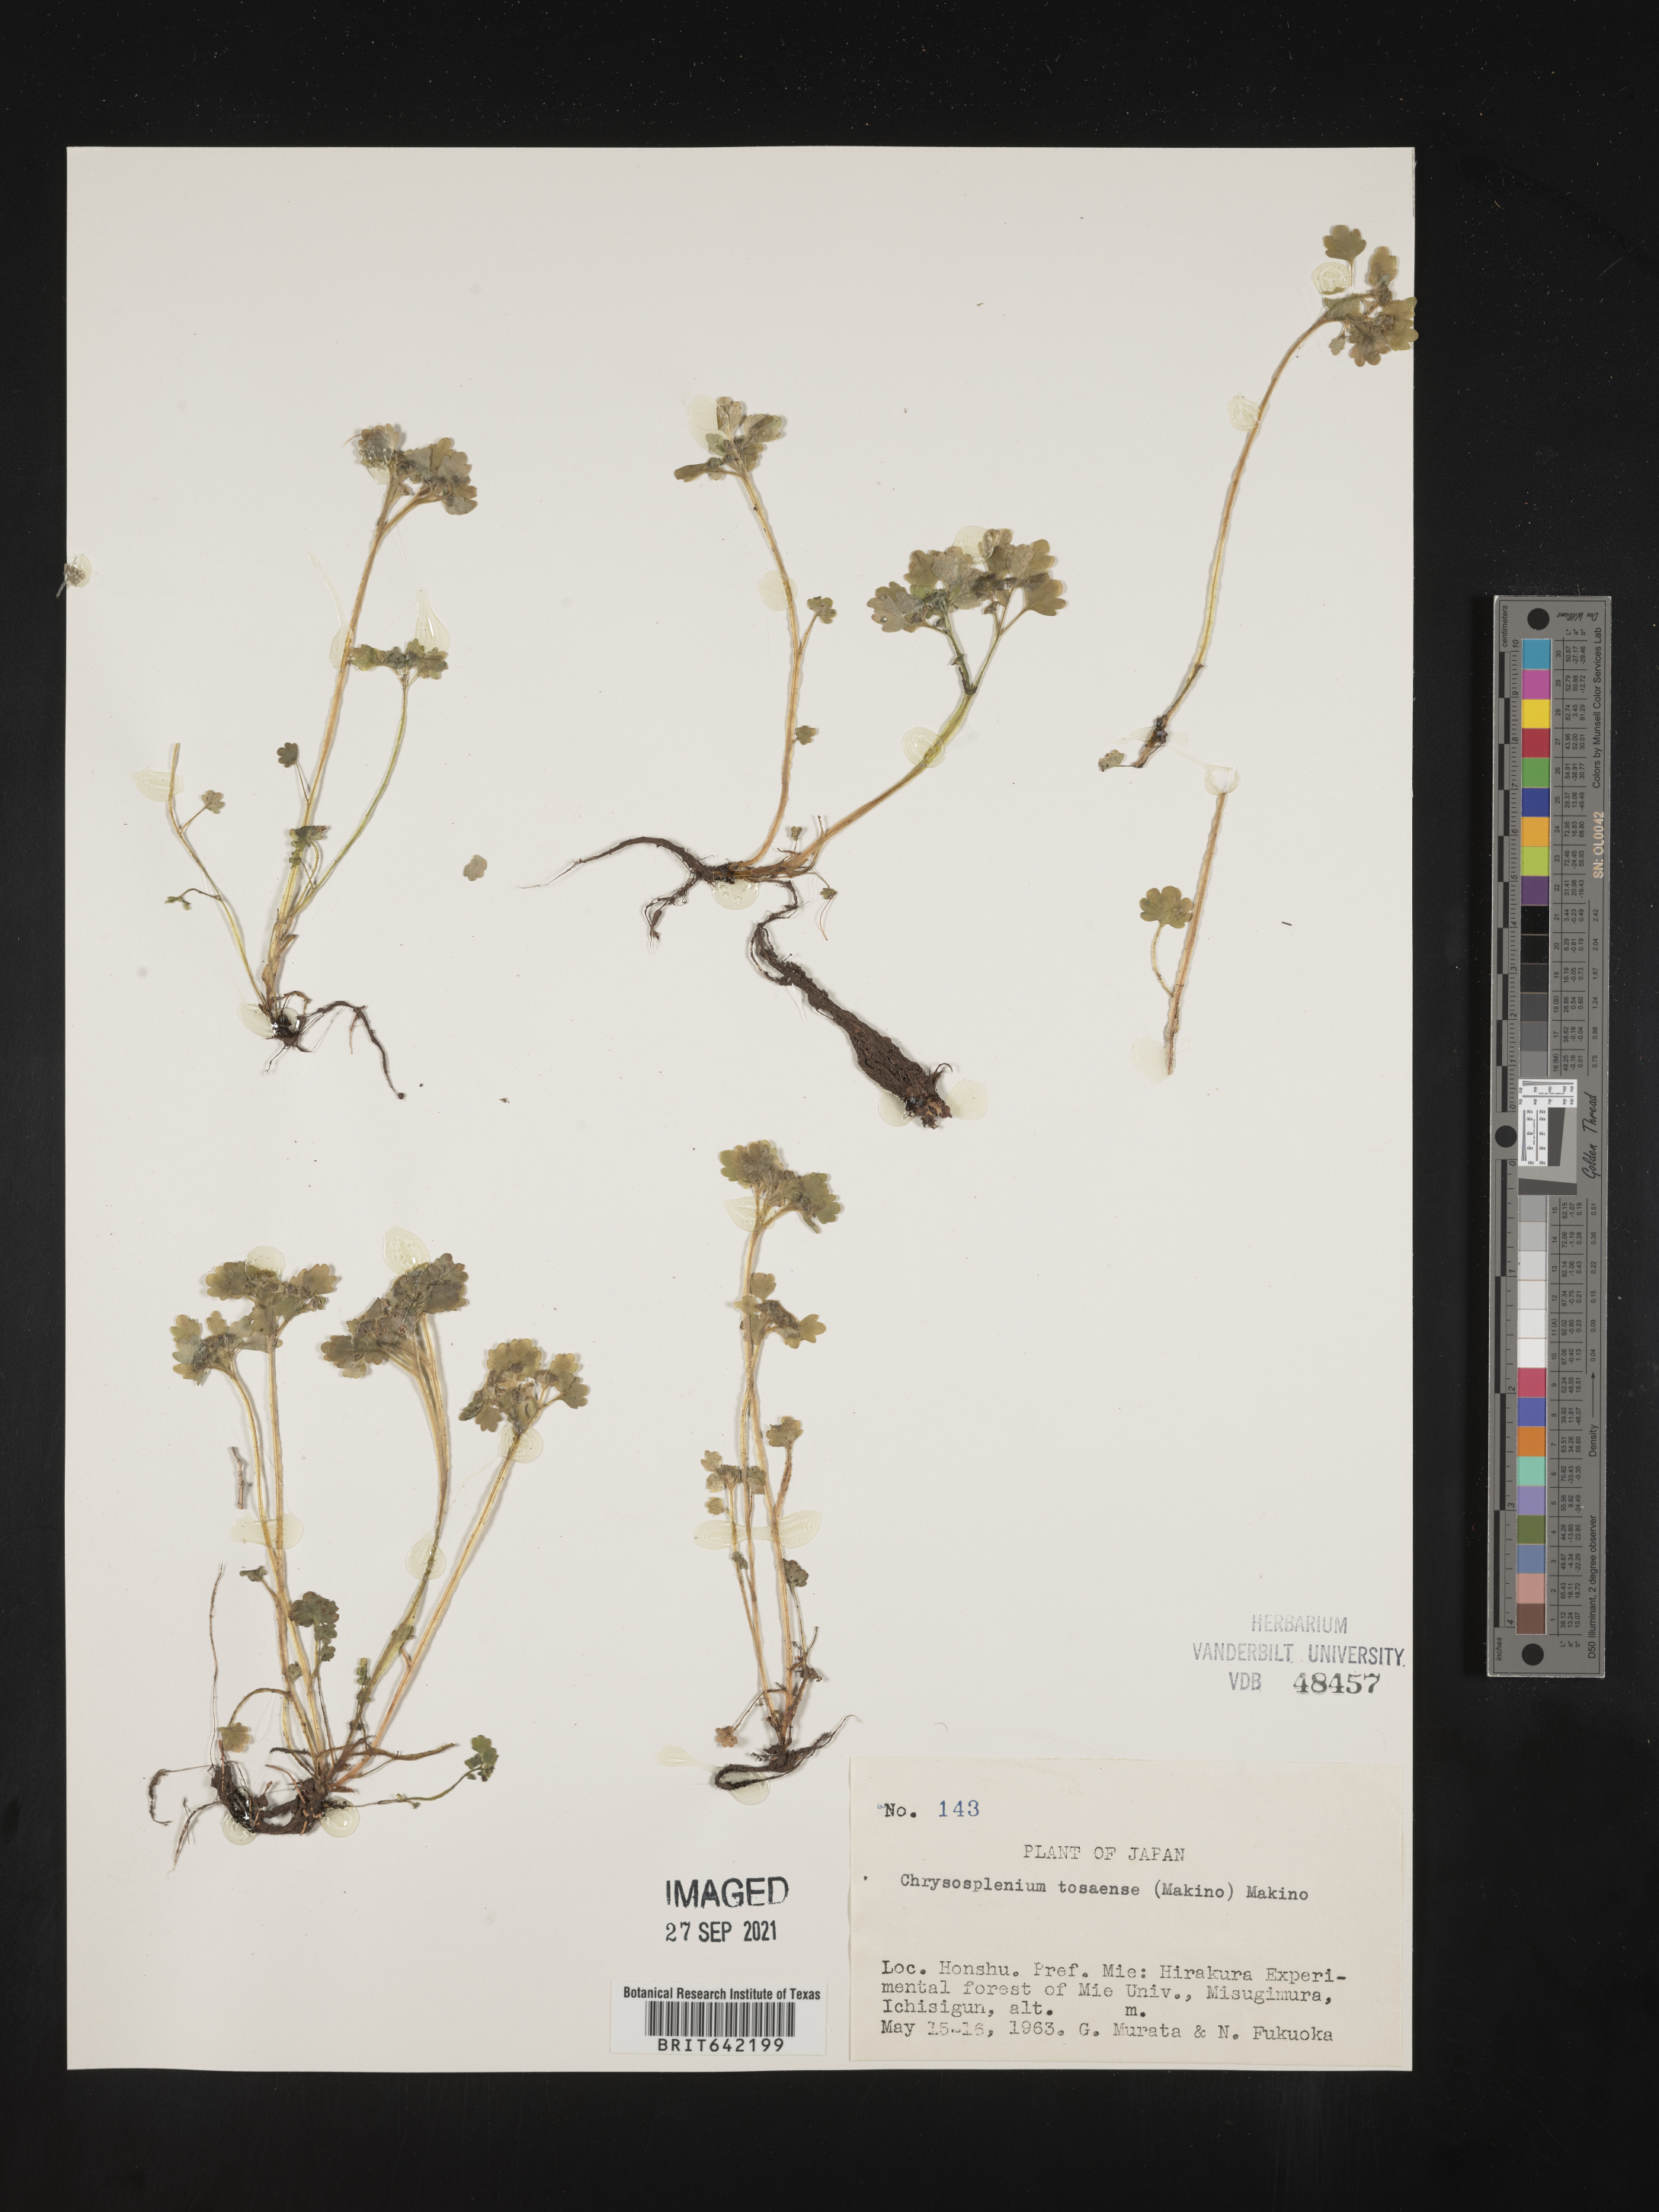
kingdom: Plantae
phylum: Tracheophyta
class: Magnoliopsida
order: Saxifragales
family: Saxifragaceae
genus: Chrysosplenium
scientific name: Chrysosplenium
